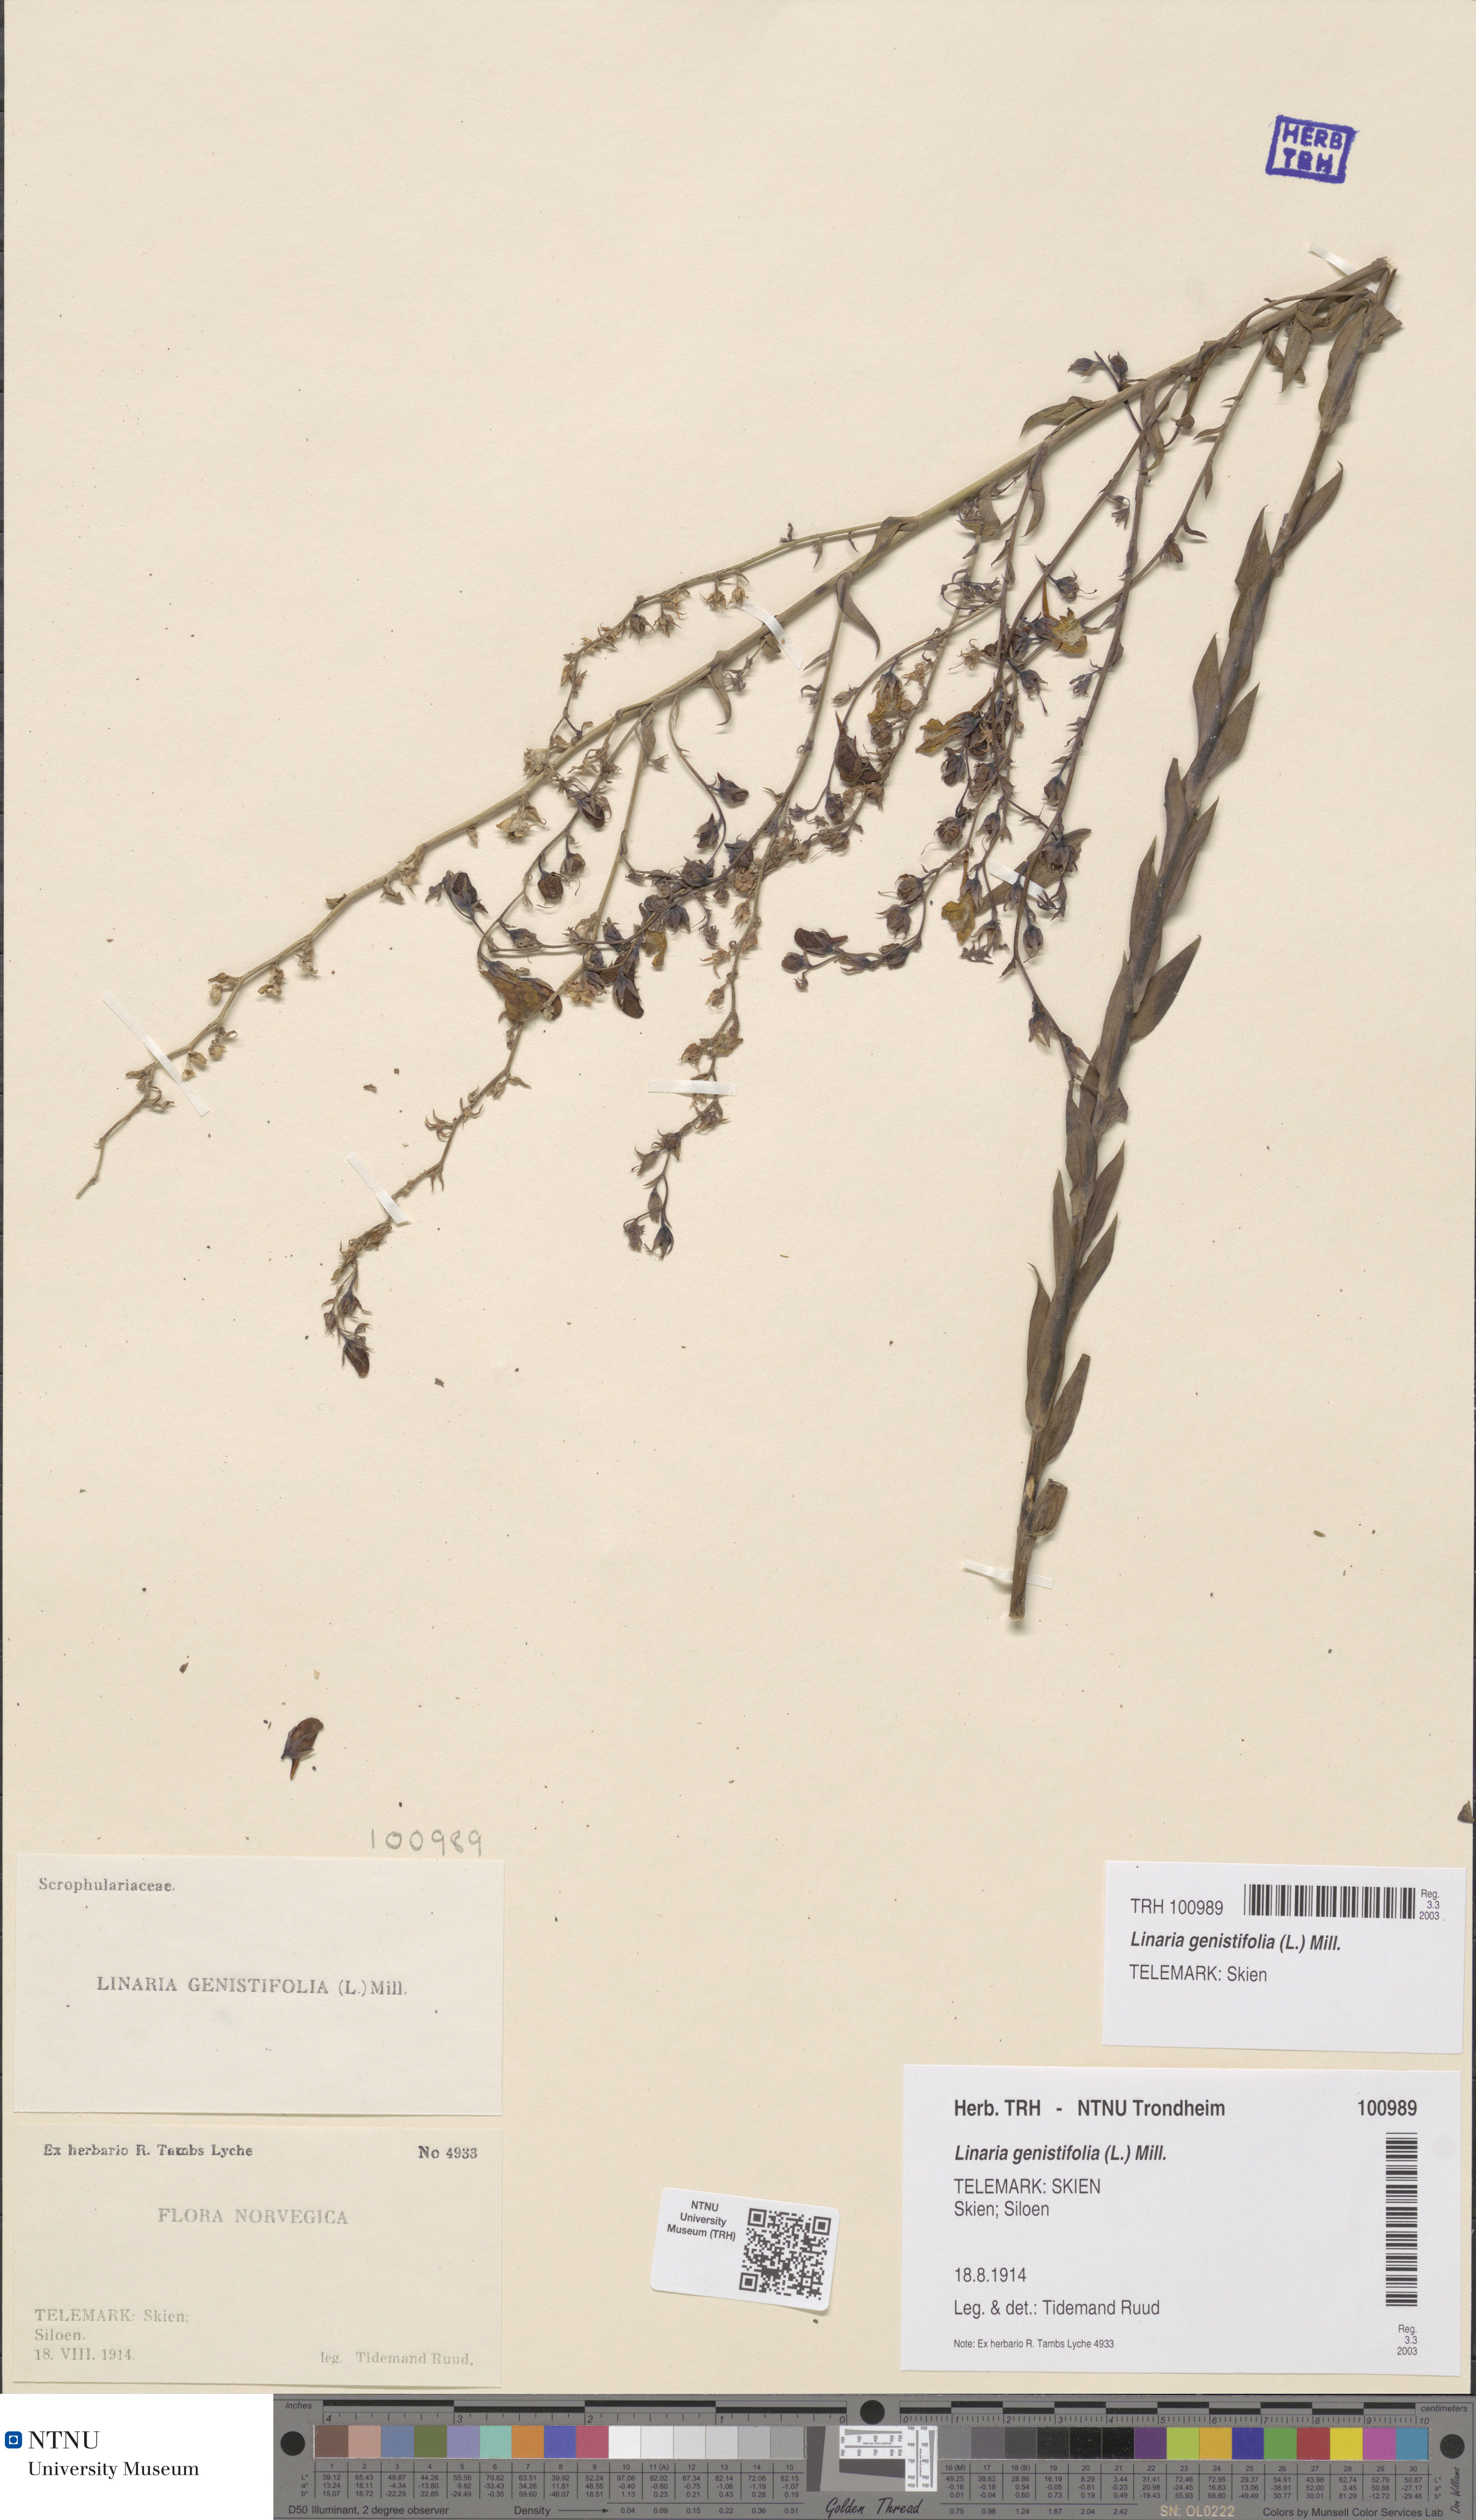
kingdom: Plantae
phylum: Tracheophyta
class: Magnoliopsida
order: Lamiales
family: Plantaginaceae
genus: Linaria
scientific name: Linaria genistifolia
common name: Broomleaf toadflax
